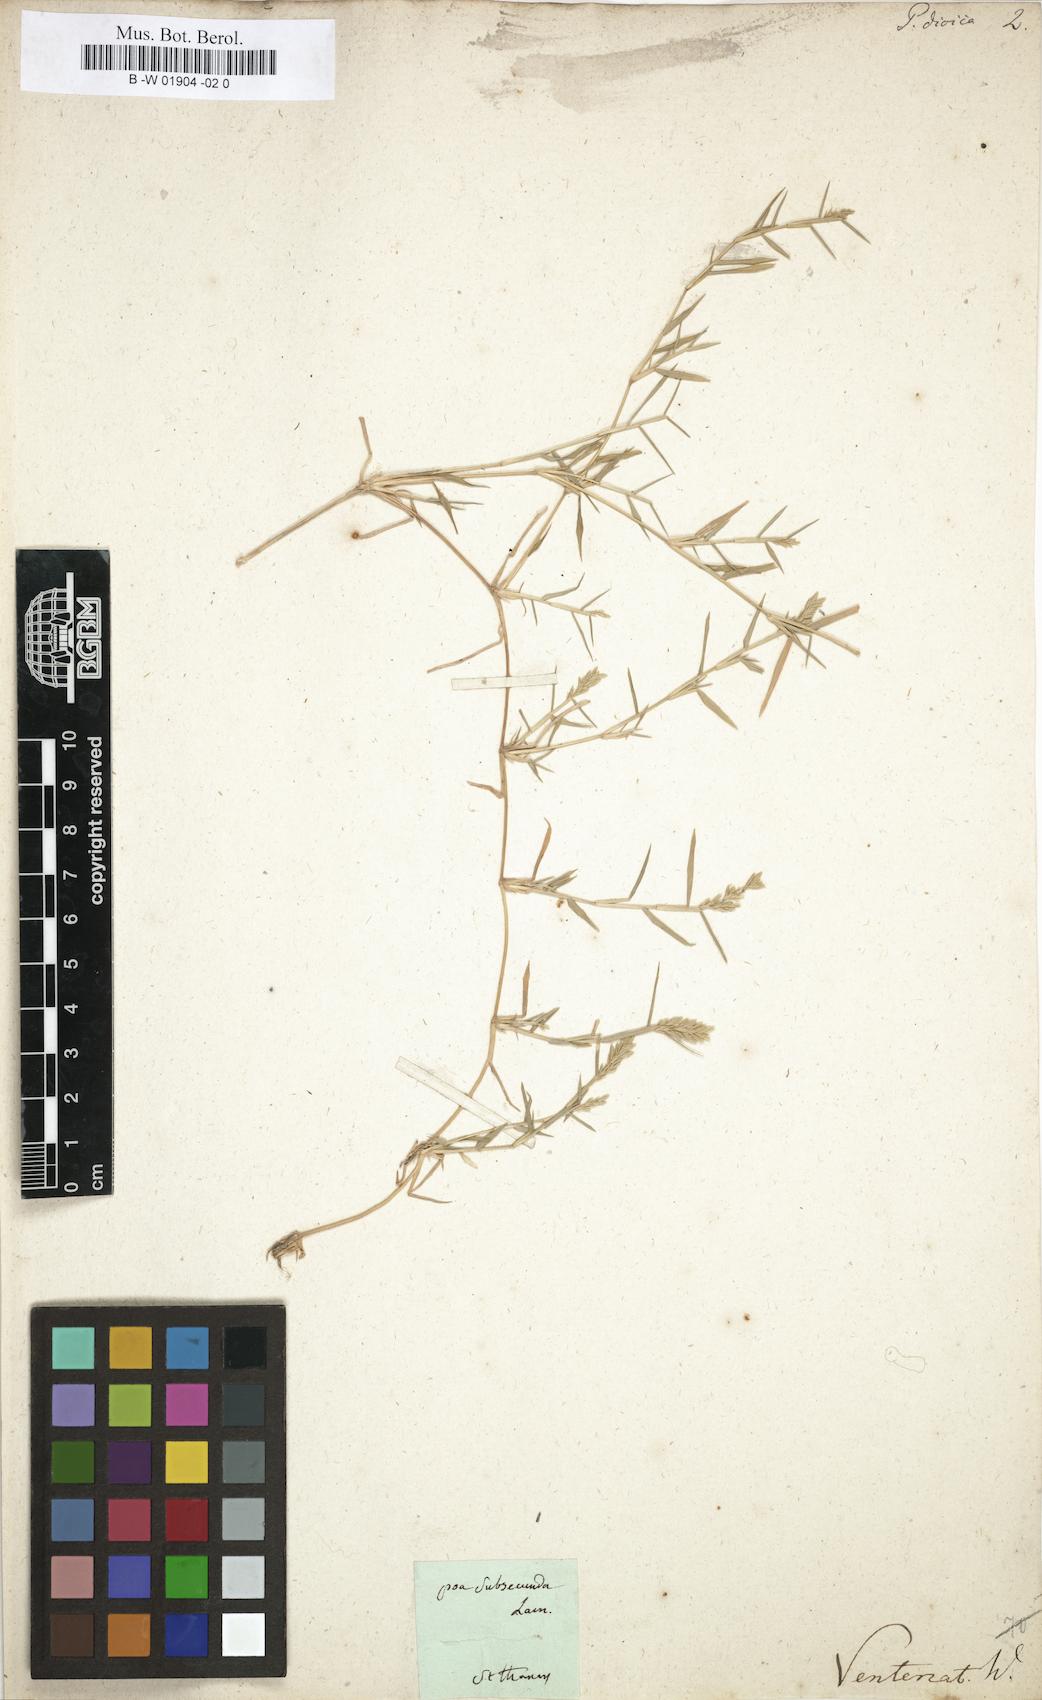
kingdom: Plantae
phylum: Tracheophyta
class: Liliopsida
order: Poales
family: Poaceae
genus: Eragrostis
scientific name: Eragrostis reptans
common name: Creeping love grass
